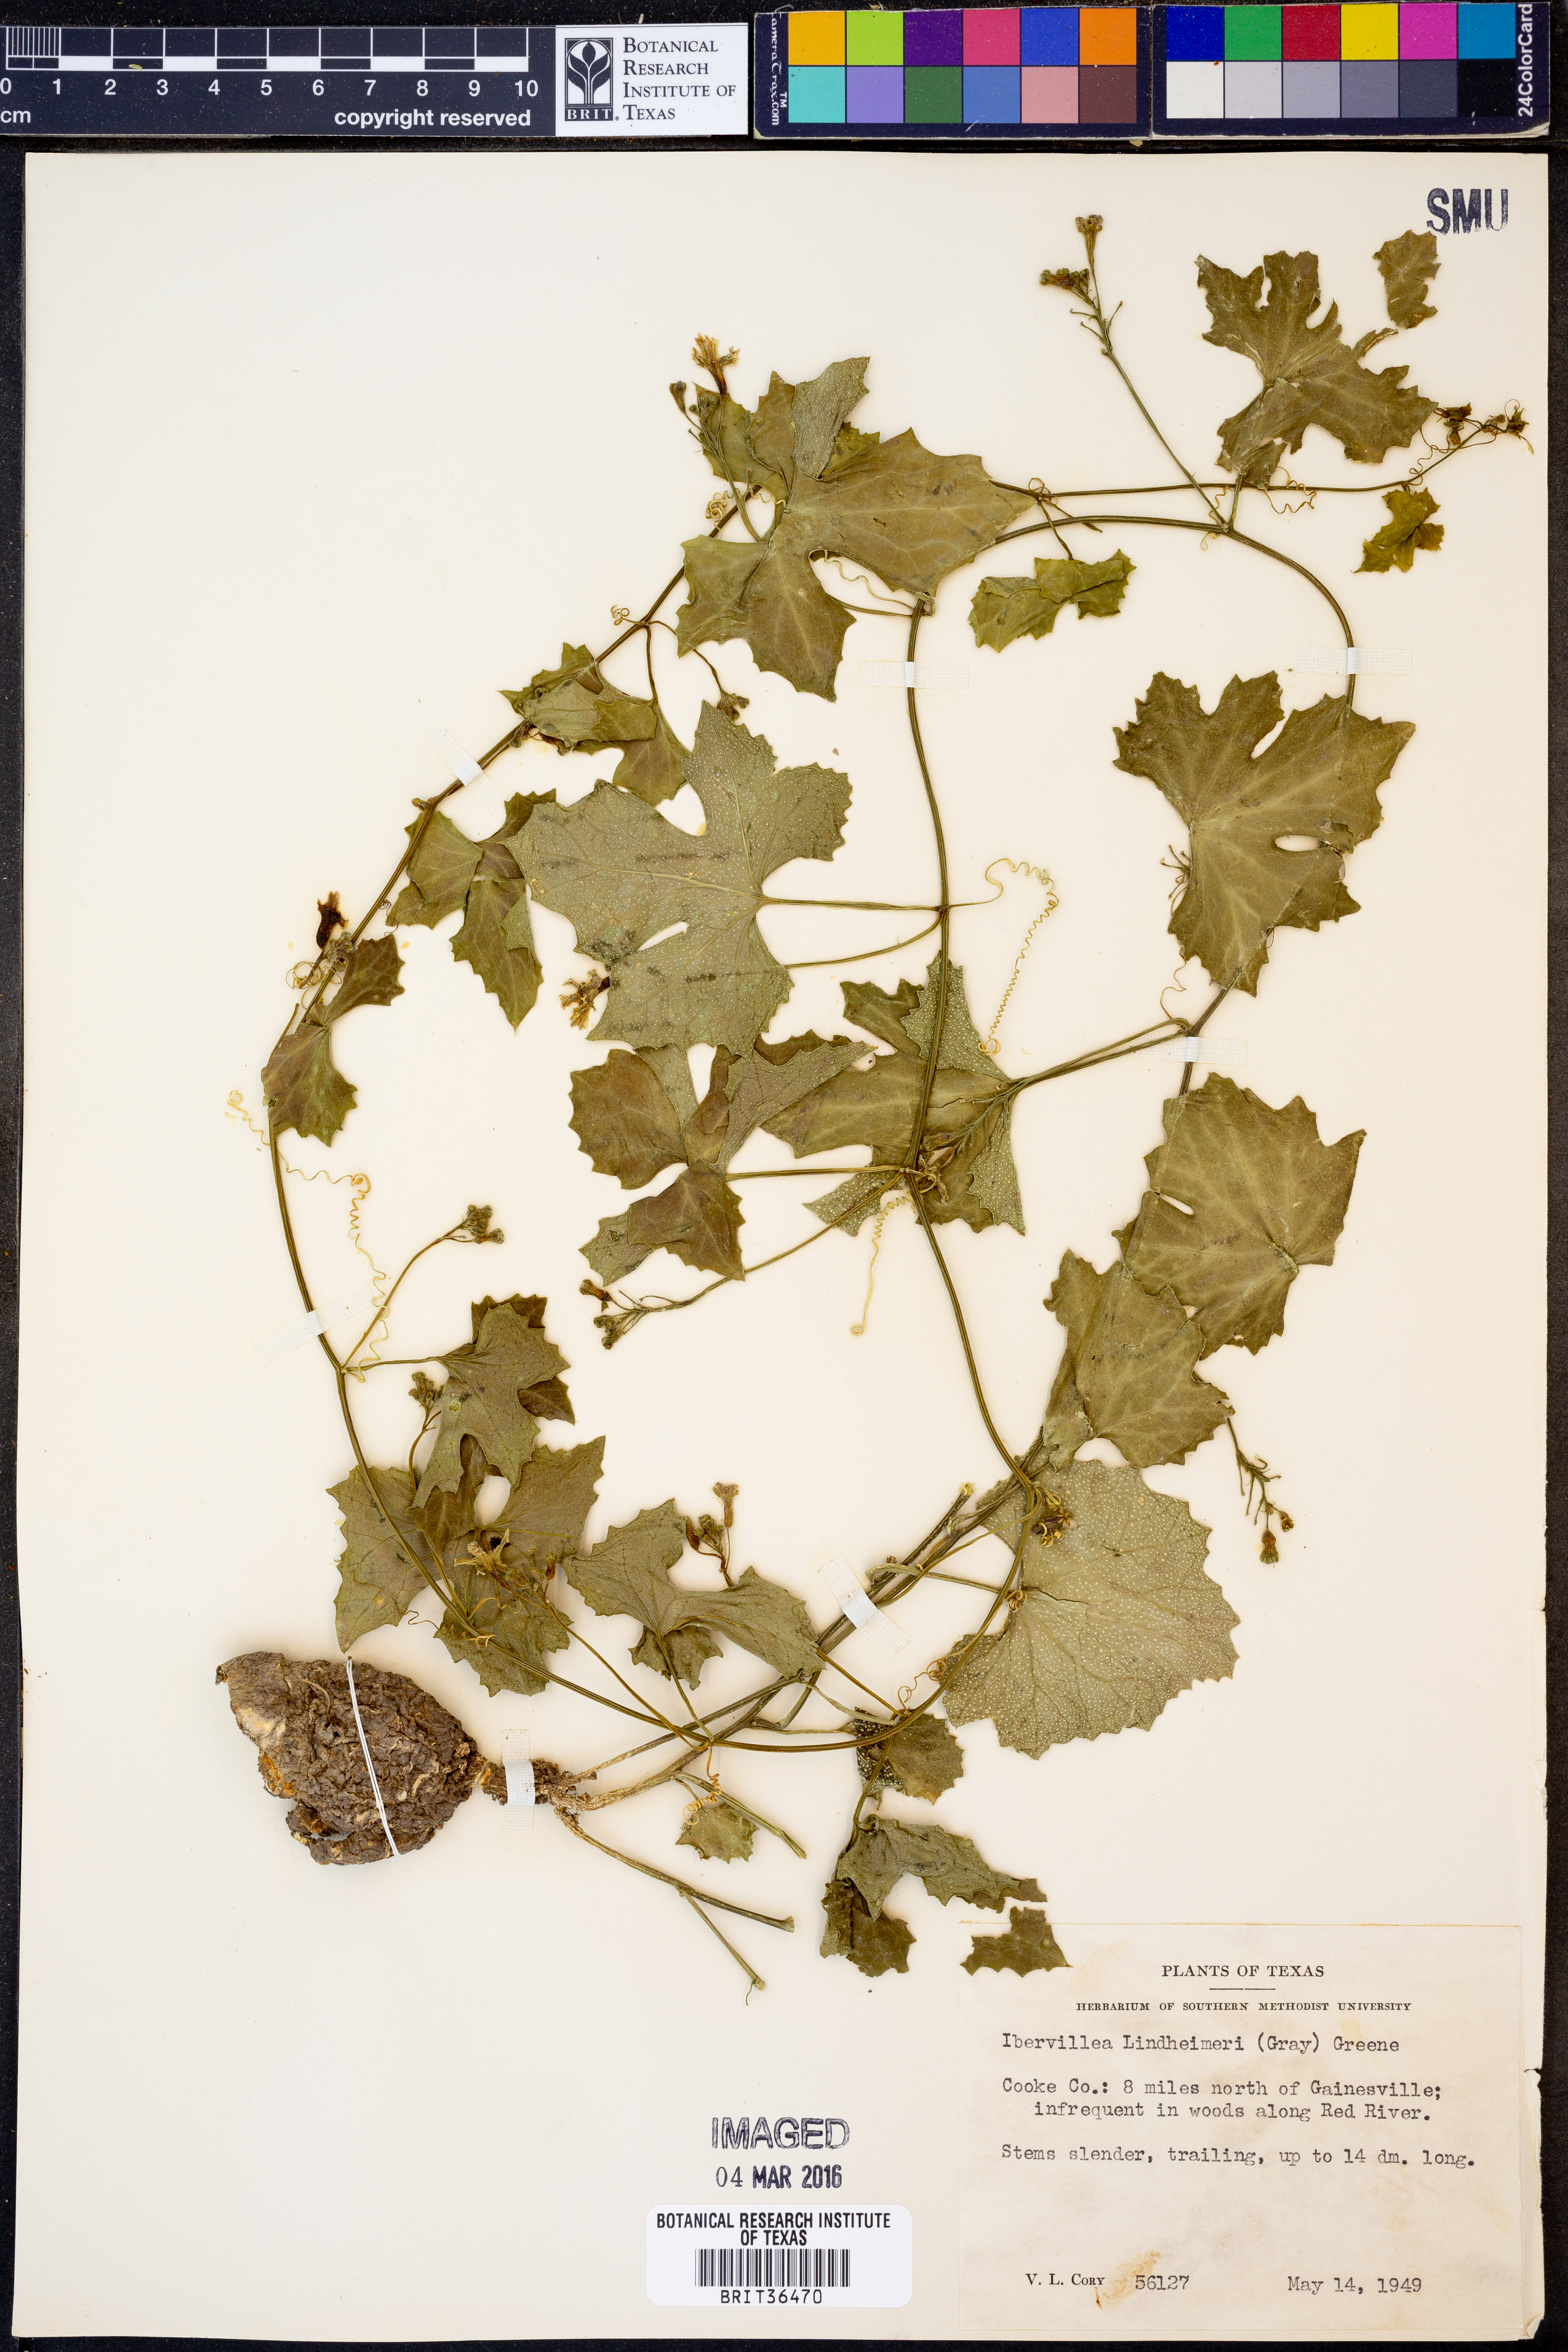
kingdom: Plantae
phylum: Tracheophyta
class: Magnoliopsida
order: Cucurbitales
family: Cucurbitaceae
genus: Ibervillea
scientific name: Ibervillea lindheimeri
